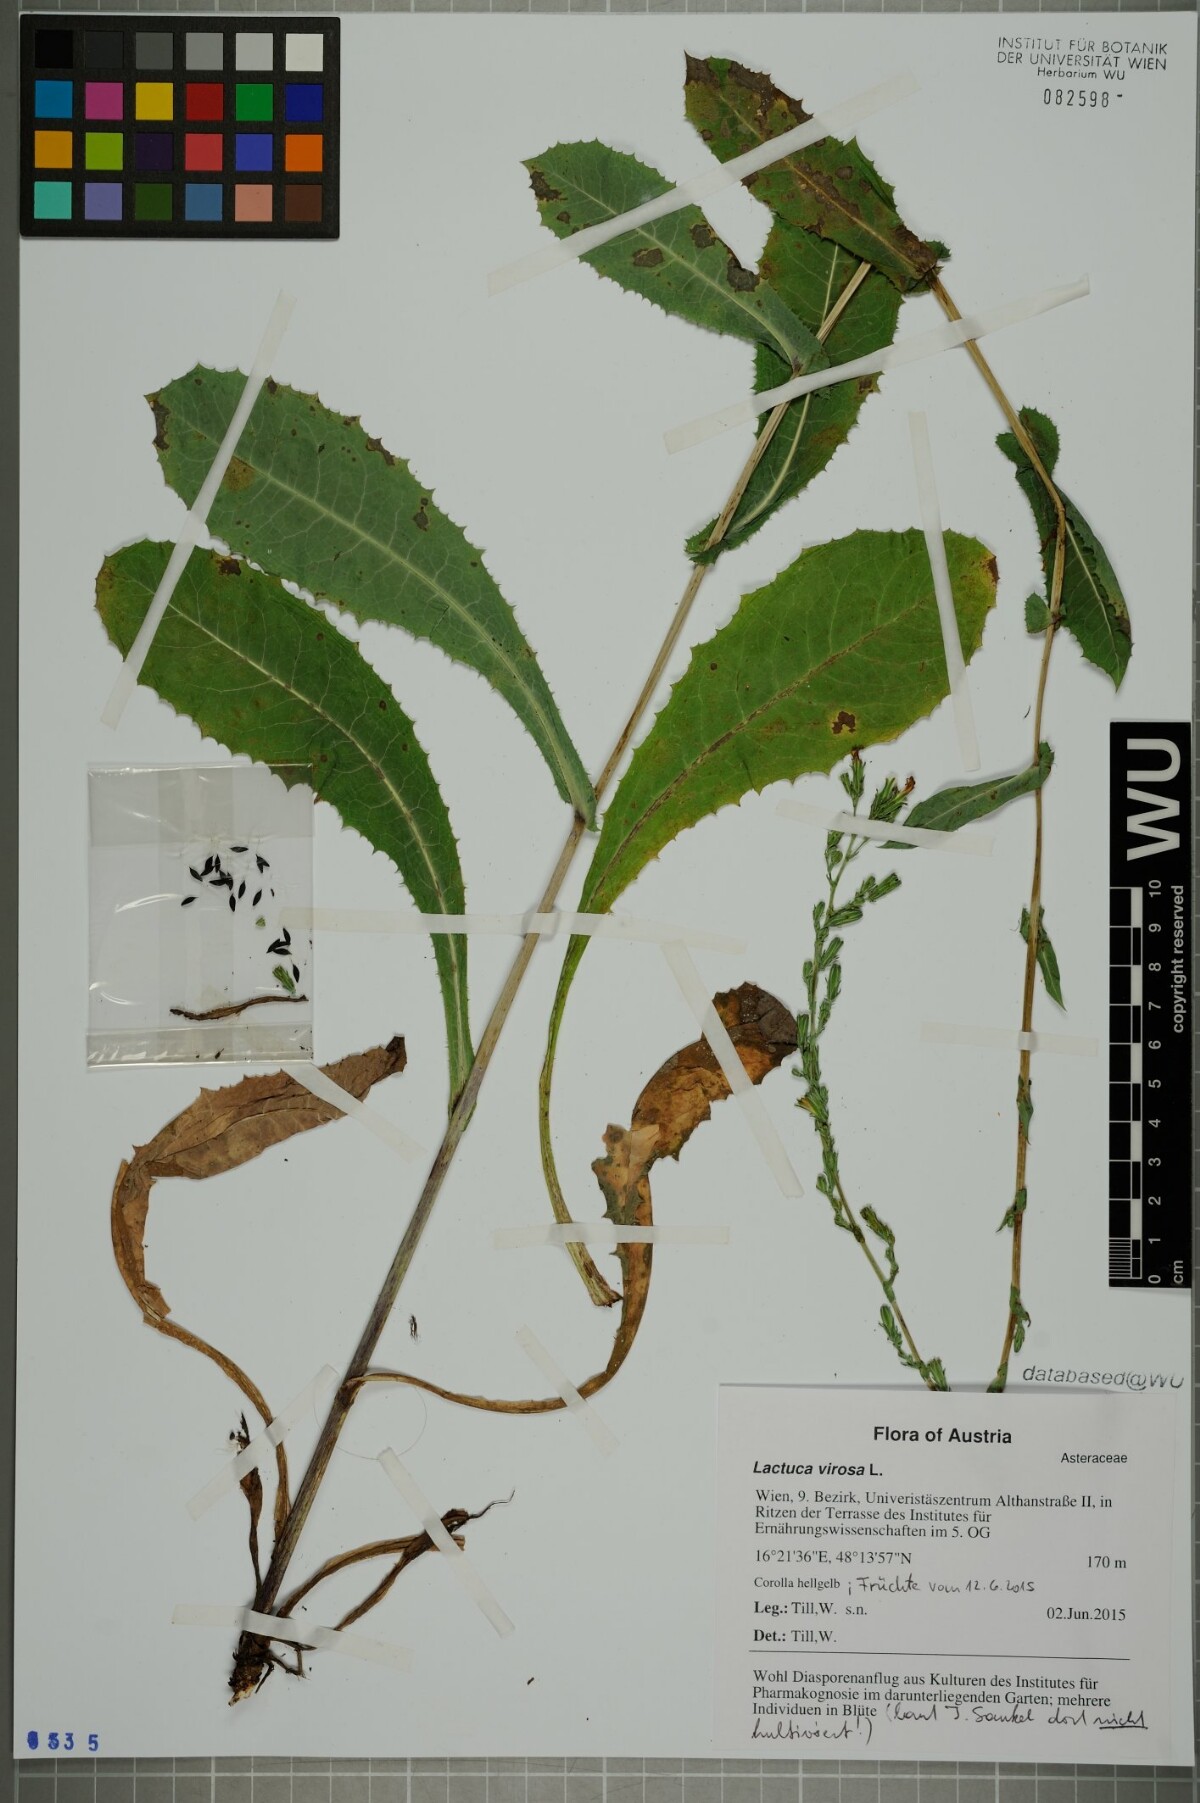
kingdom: Plantae
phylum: Tracheophyta
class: Magnoliopsida
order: Asterales
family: Asteraceae
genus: Lactuca
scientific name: Lactuca virosa
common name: Great lettuce
